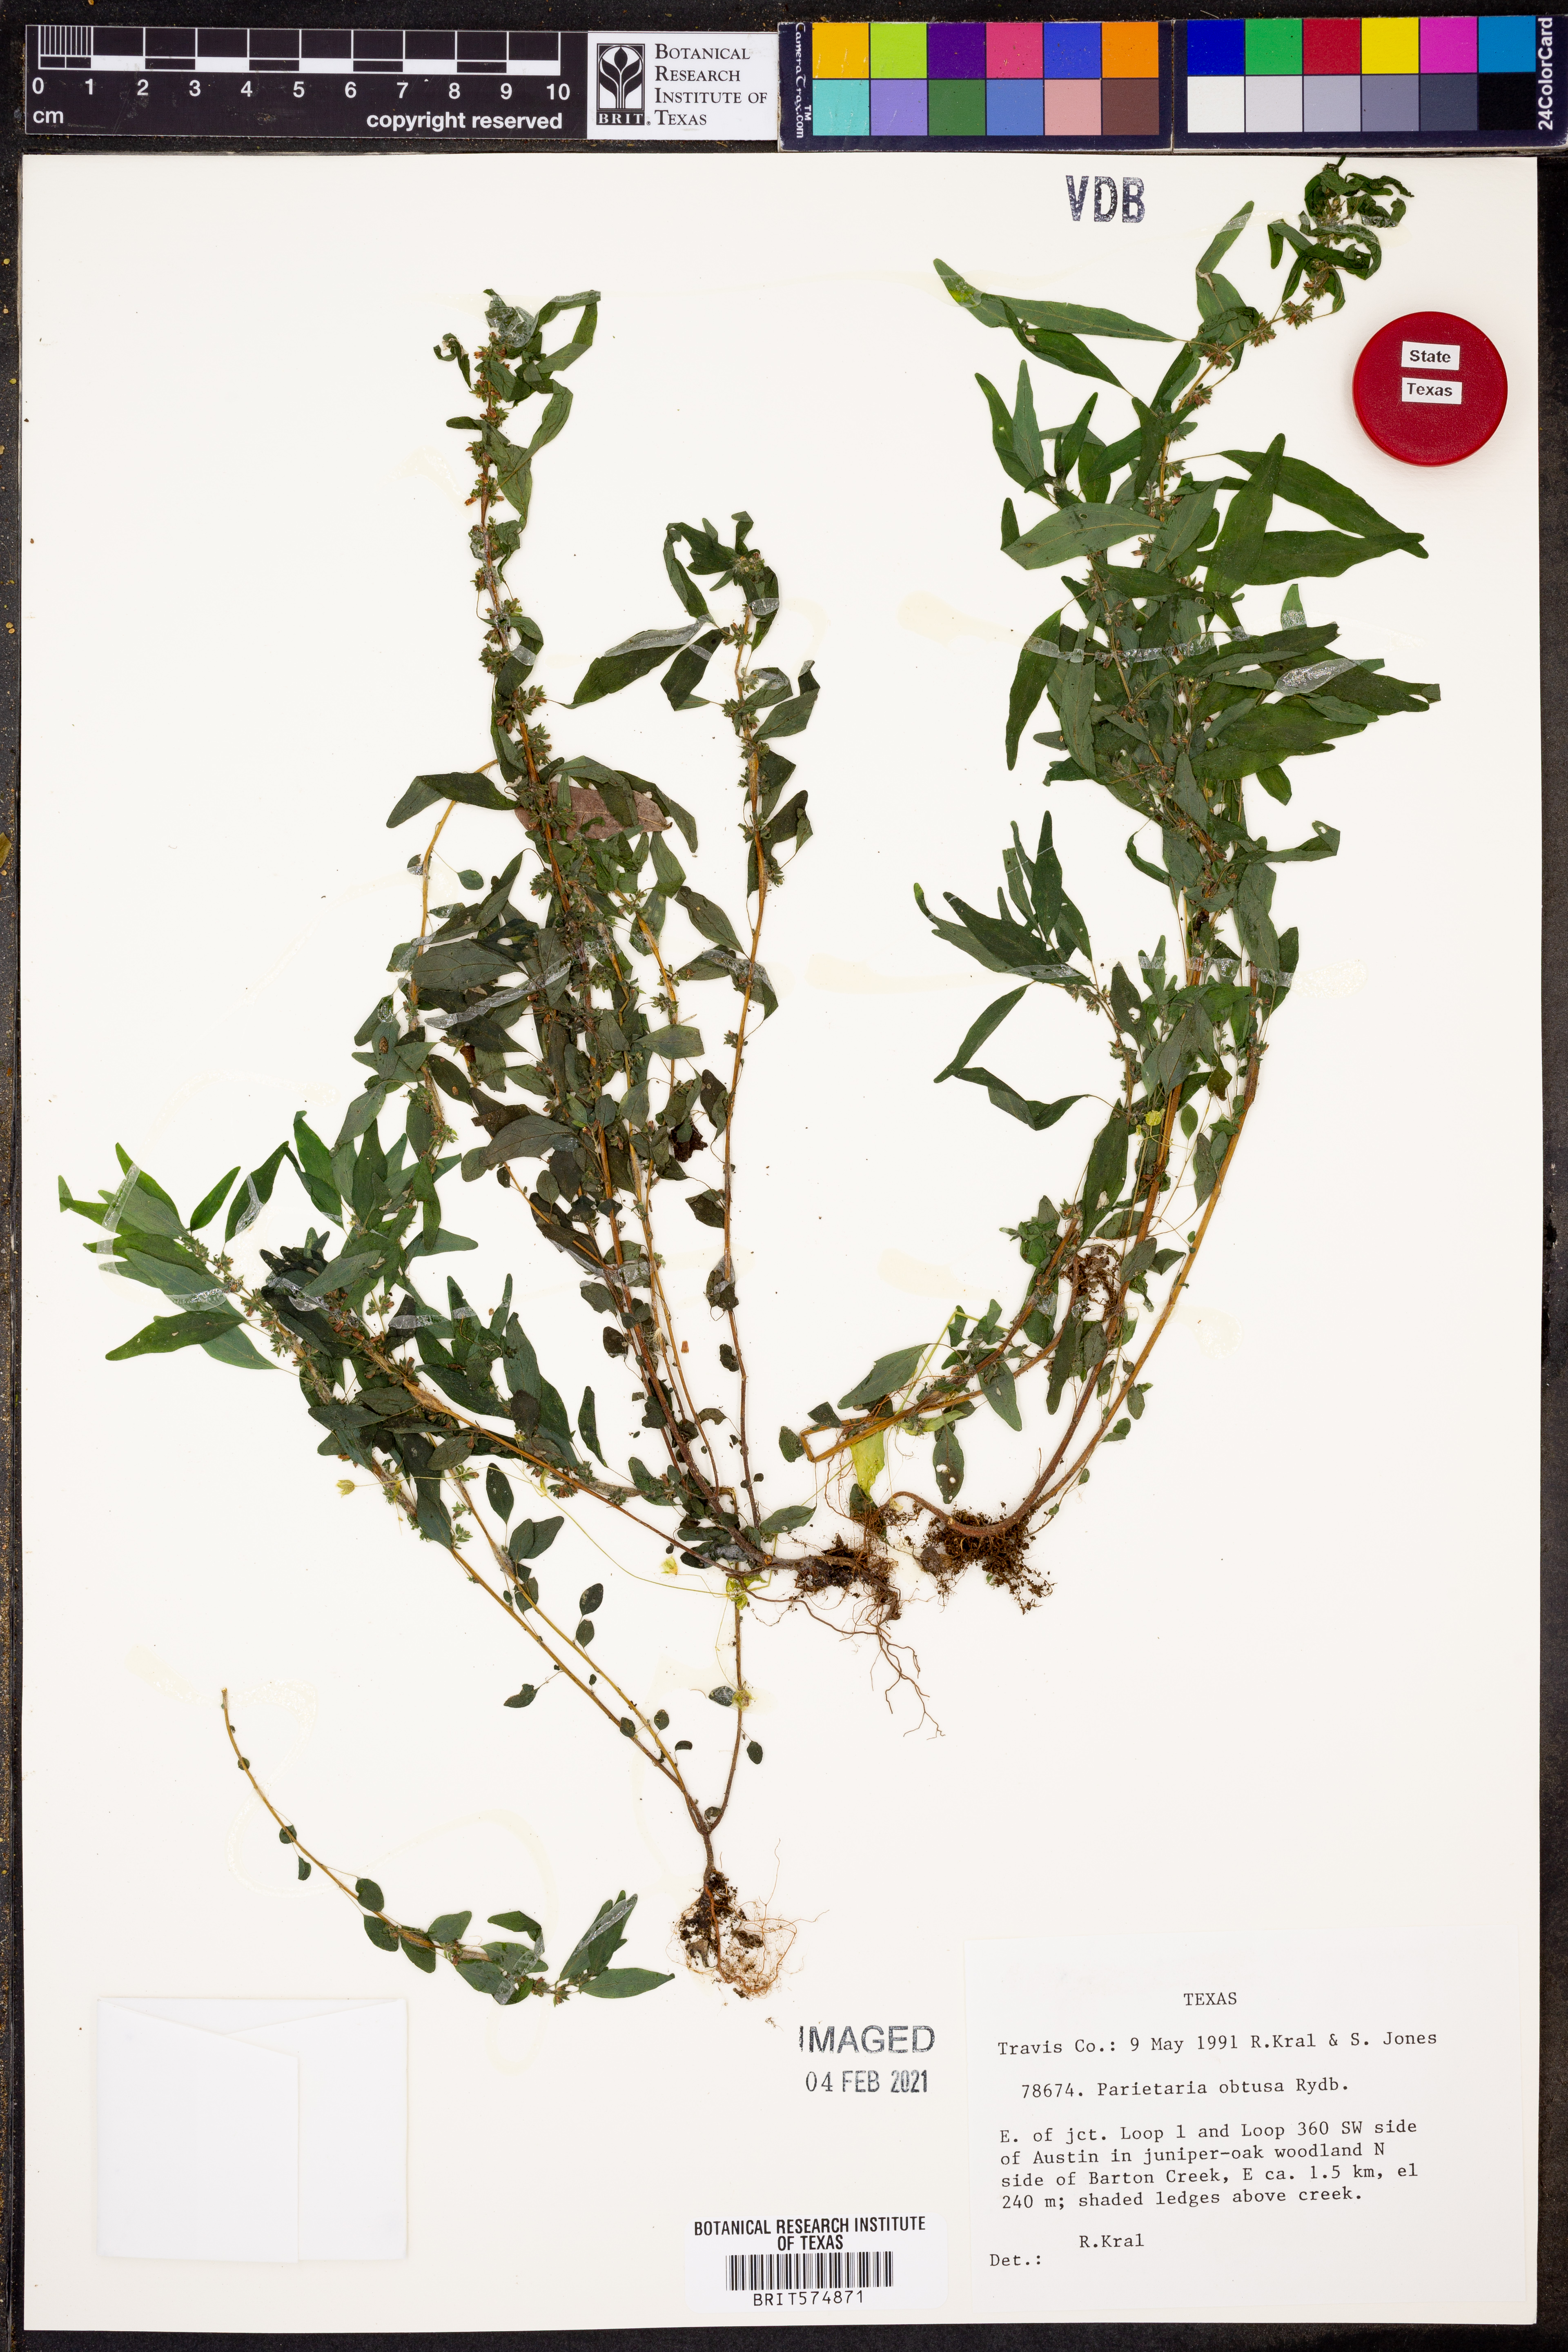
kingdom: Plantae
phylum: Tracheophyta
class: Magnoliopsida
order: Rosales
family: Urticaceae
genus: Parietaria
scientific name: Parietaria pensylvanica
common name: Pennsylvania pellitory
